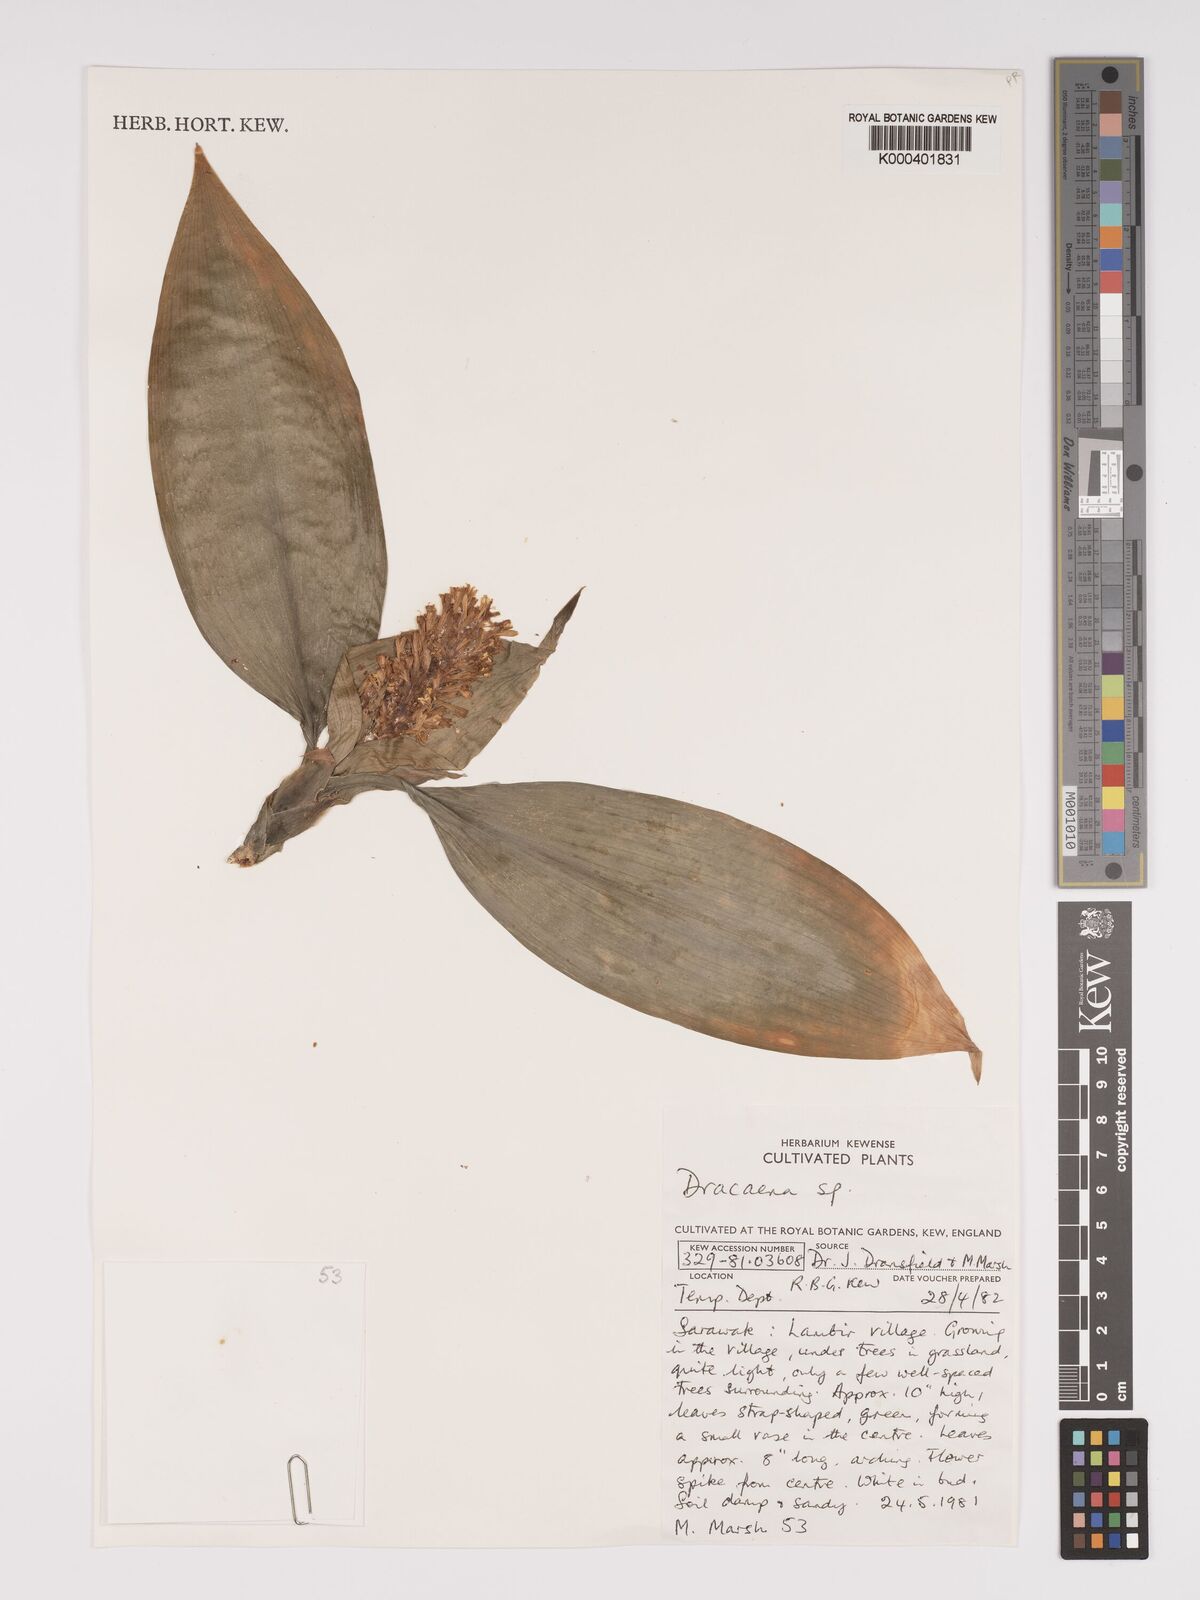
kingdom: Plantae
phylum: Tracheophyta
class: Liliopsida
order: Asparagales
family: Asparagaceae
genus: Dracaena
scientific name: Dracaena
